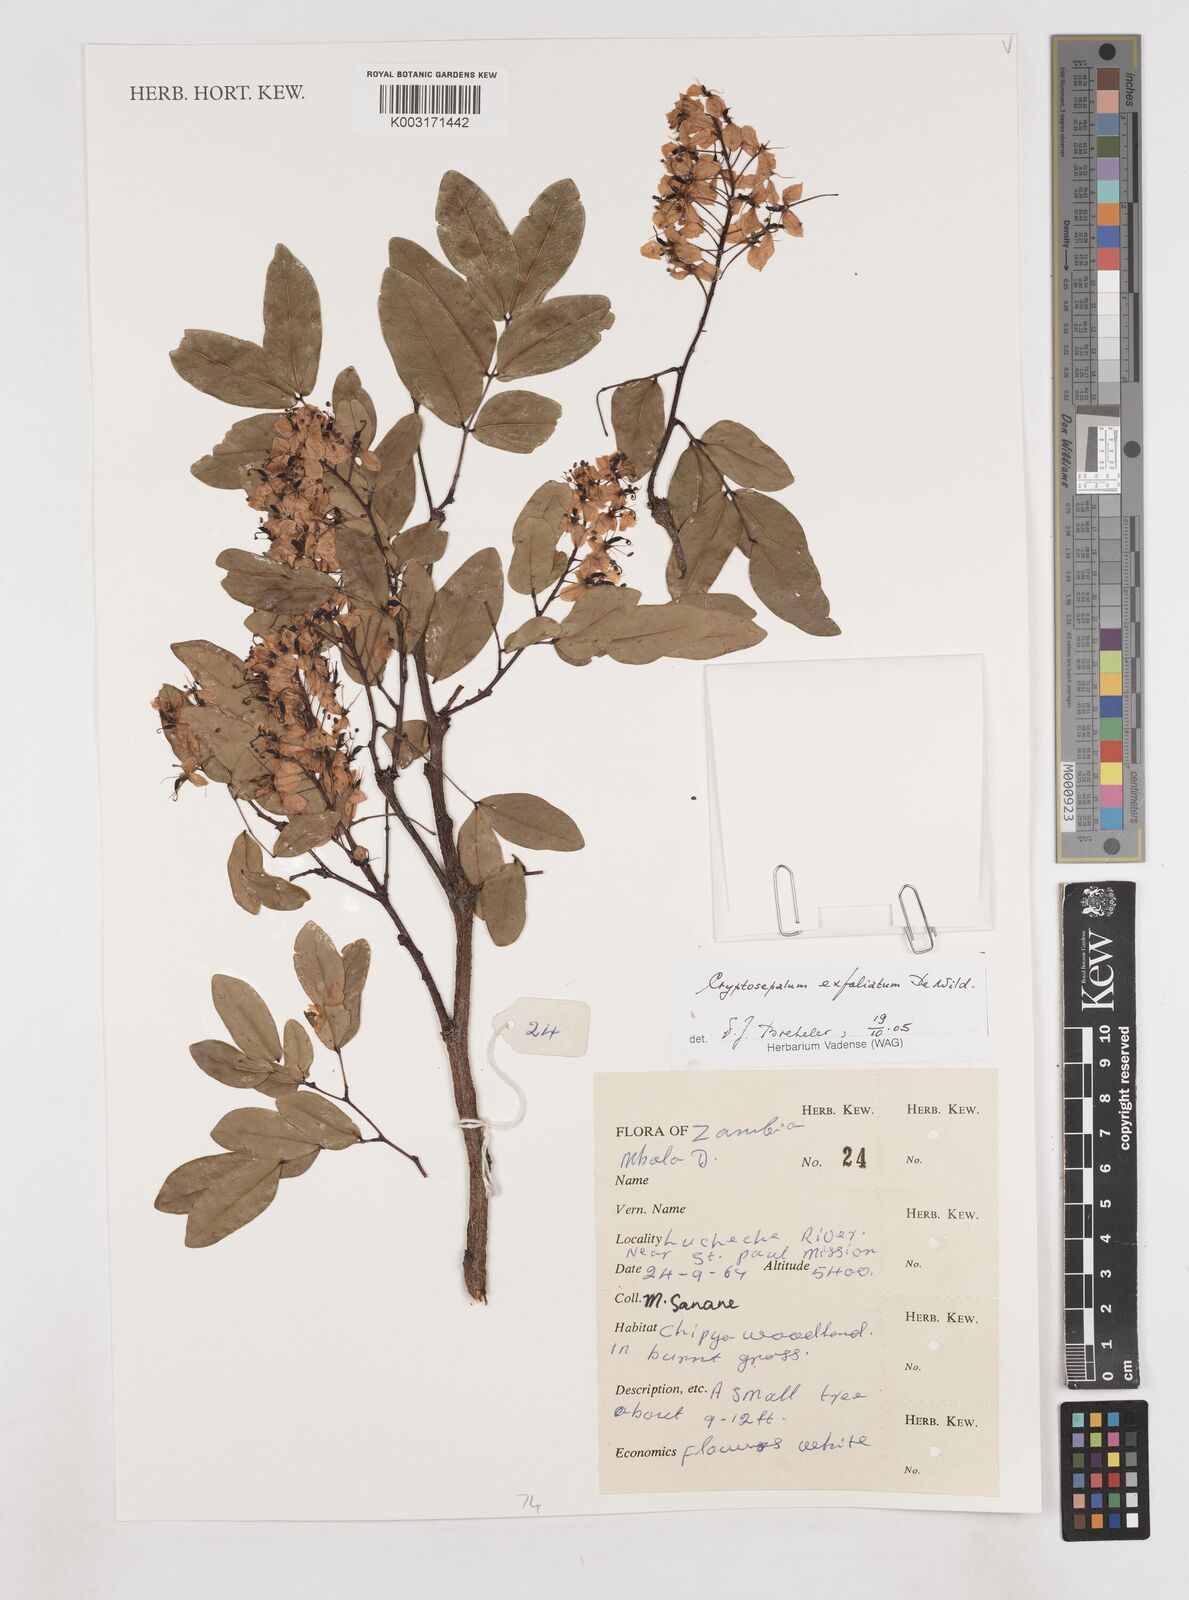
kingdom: Plantae
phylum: Tracheophyta
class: Magnoliopsida
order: Fabales
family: Fabaceae
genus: Cryptosepalum
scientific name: Cryptosepalum exfoliatum
